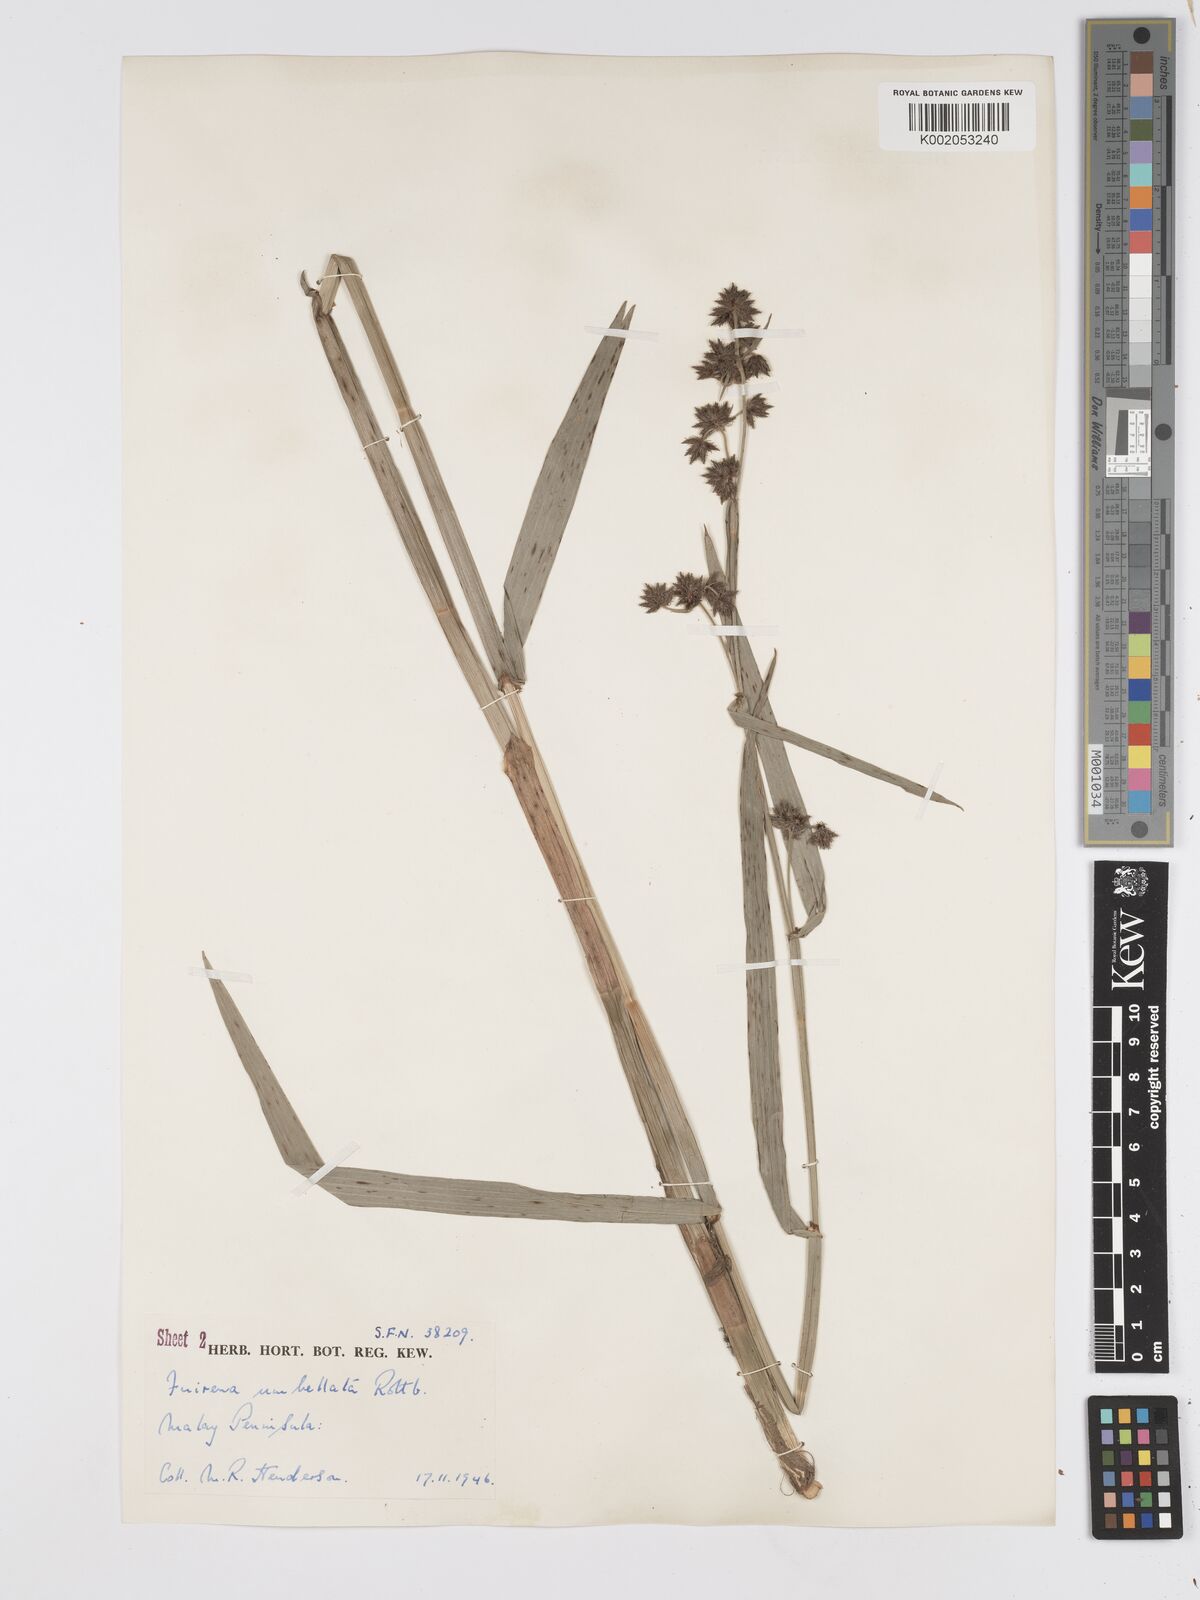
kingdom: Plantae
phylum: Tracheophyta
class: Liliopsida
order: Poales
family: Cyperaceae
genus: Fuirena
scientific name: Fuirena umbellata
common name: Yefen
